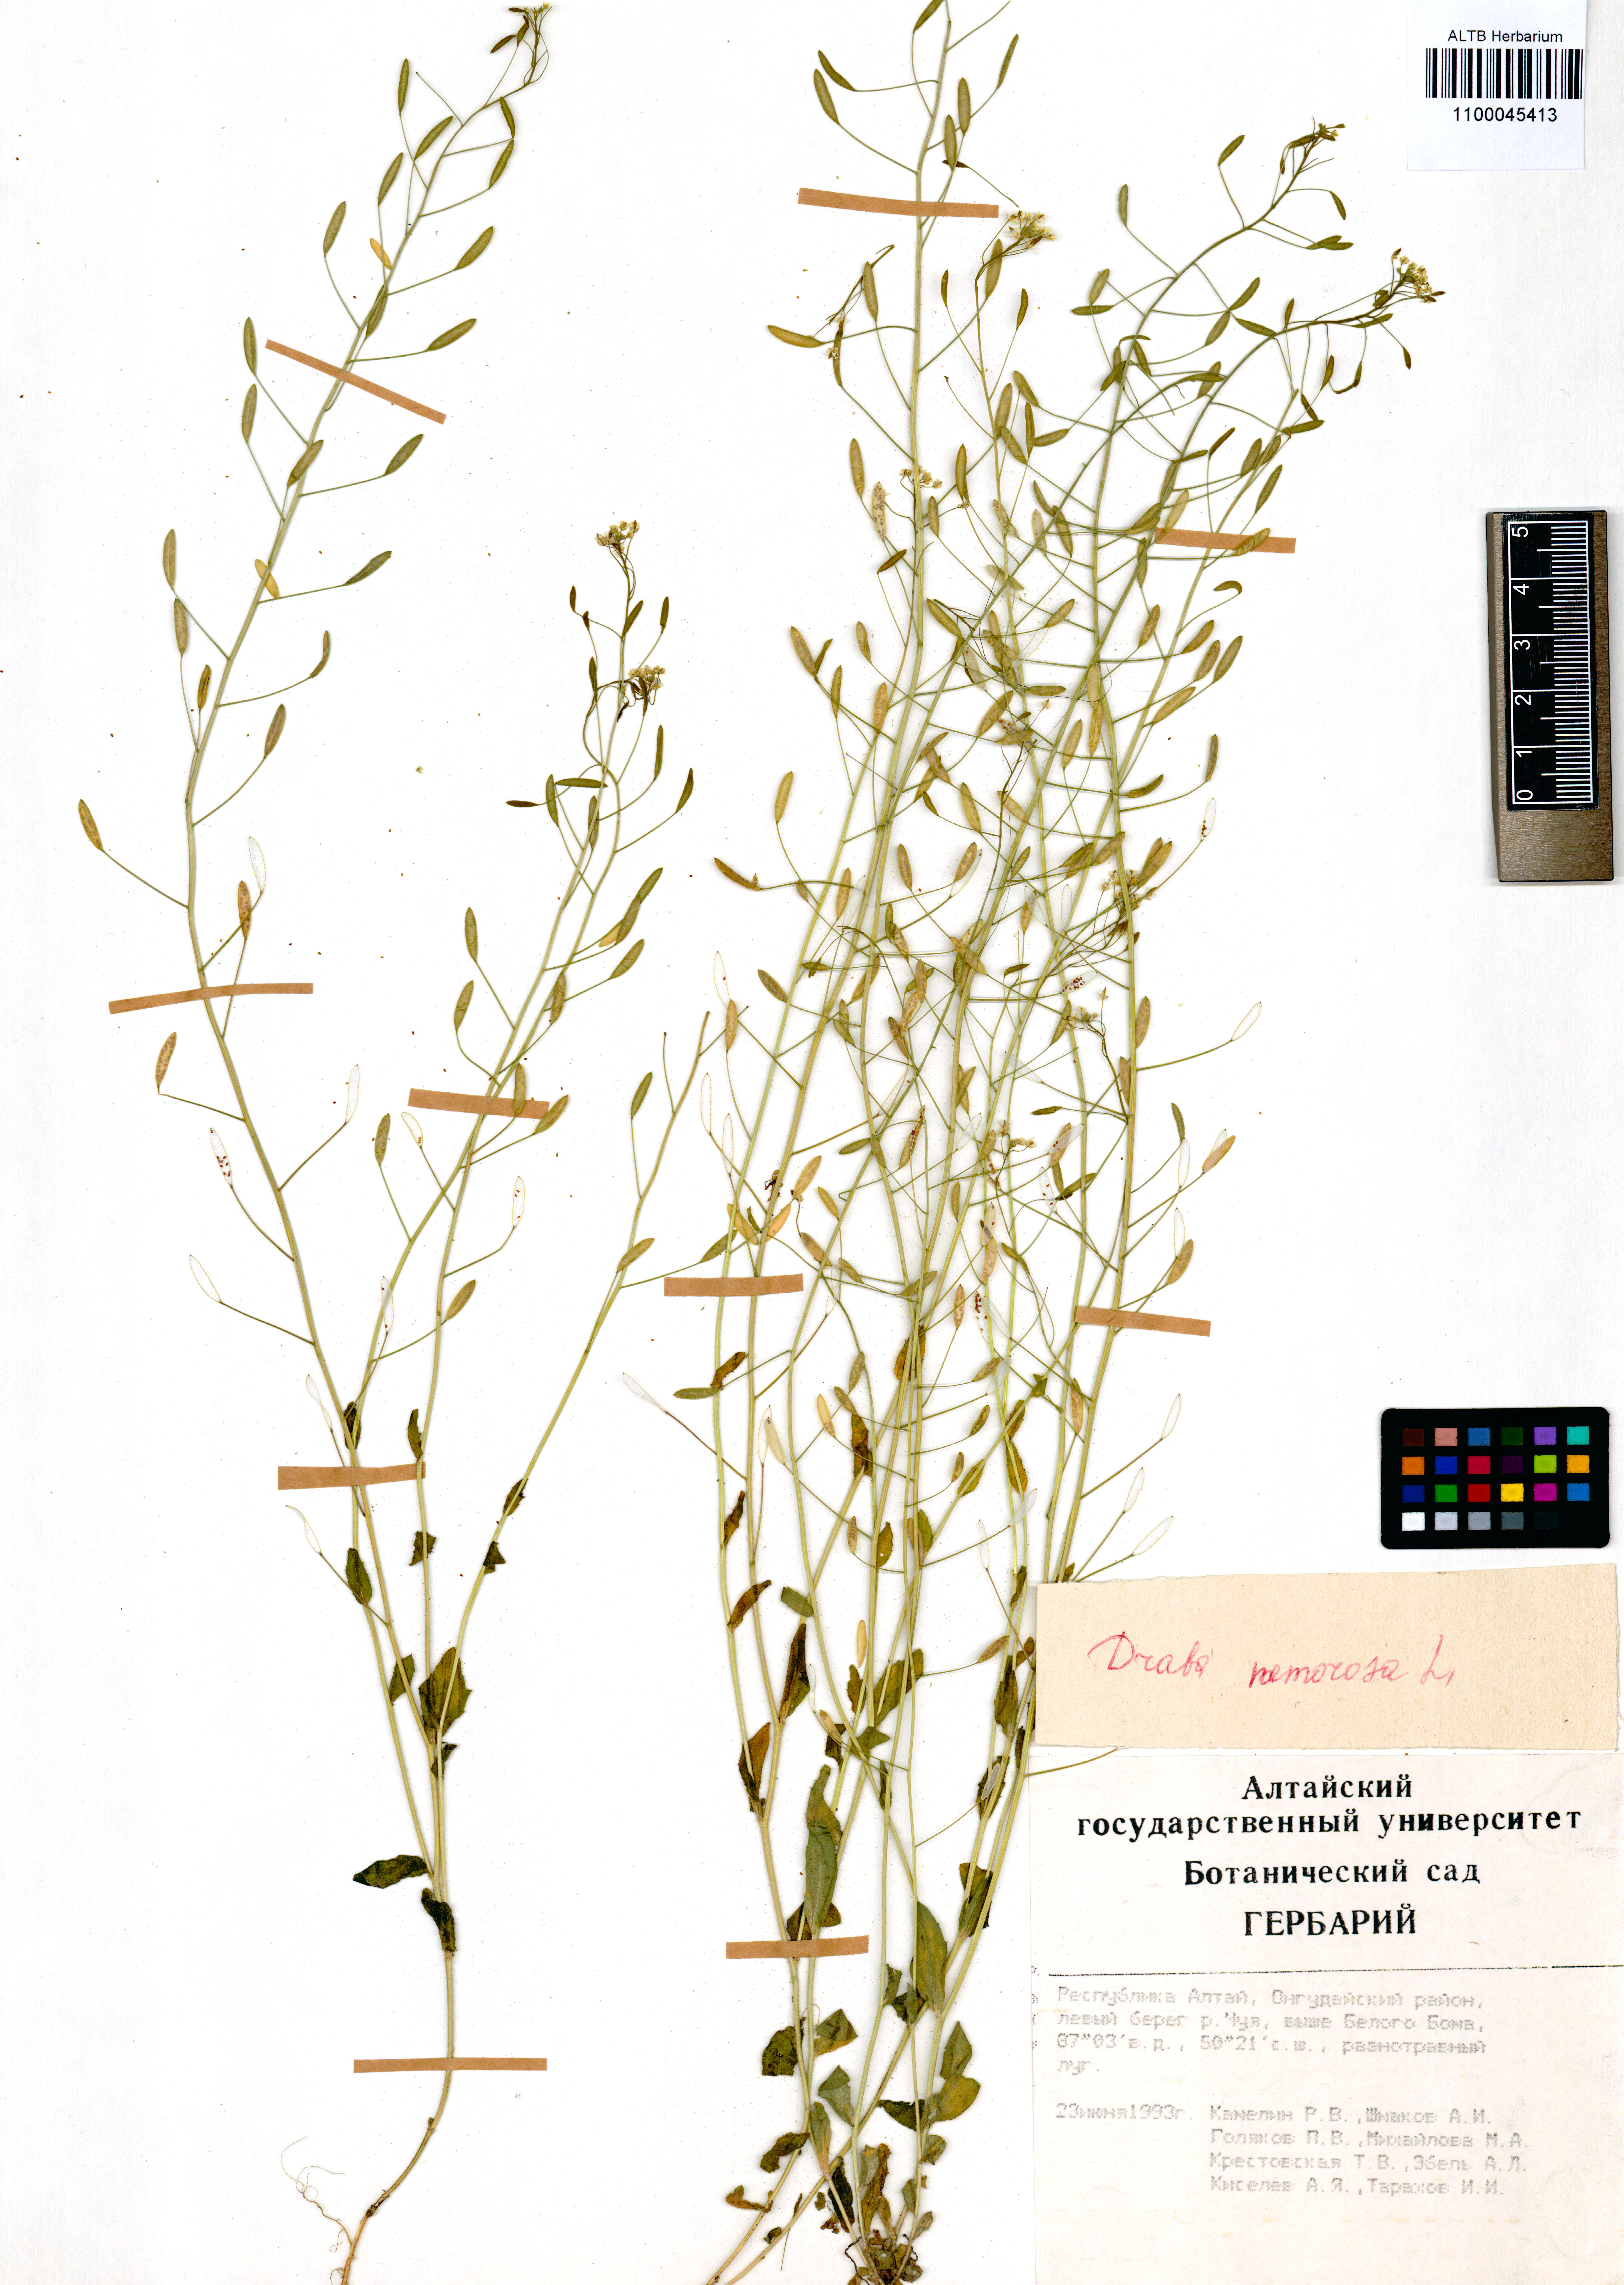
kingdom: Plantae
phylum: Tracheophyta
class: Magnoliopsida
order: Brassicales
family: Brassicaceae
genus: Draba
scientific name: Draba nemorosa
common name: Wood whitlow-grass
